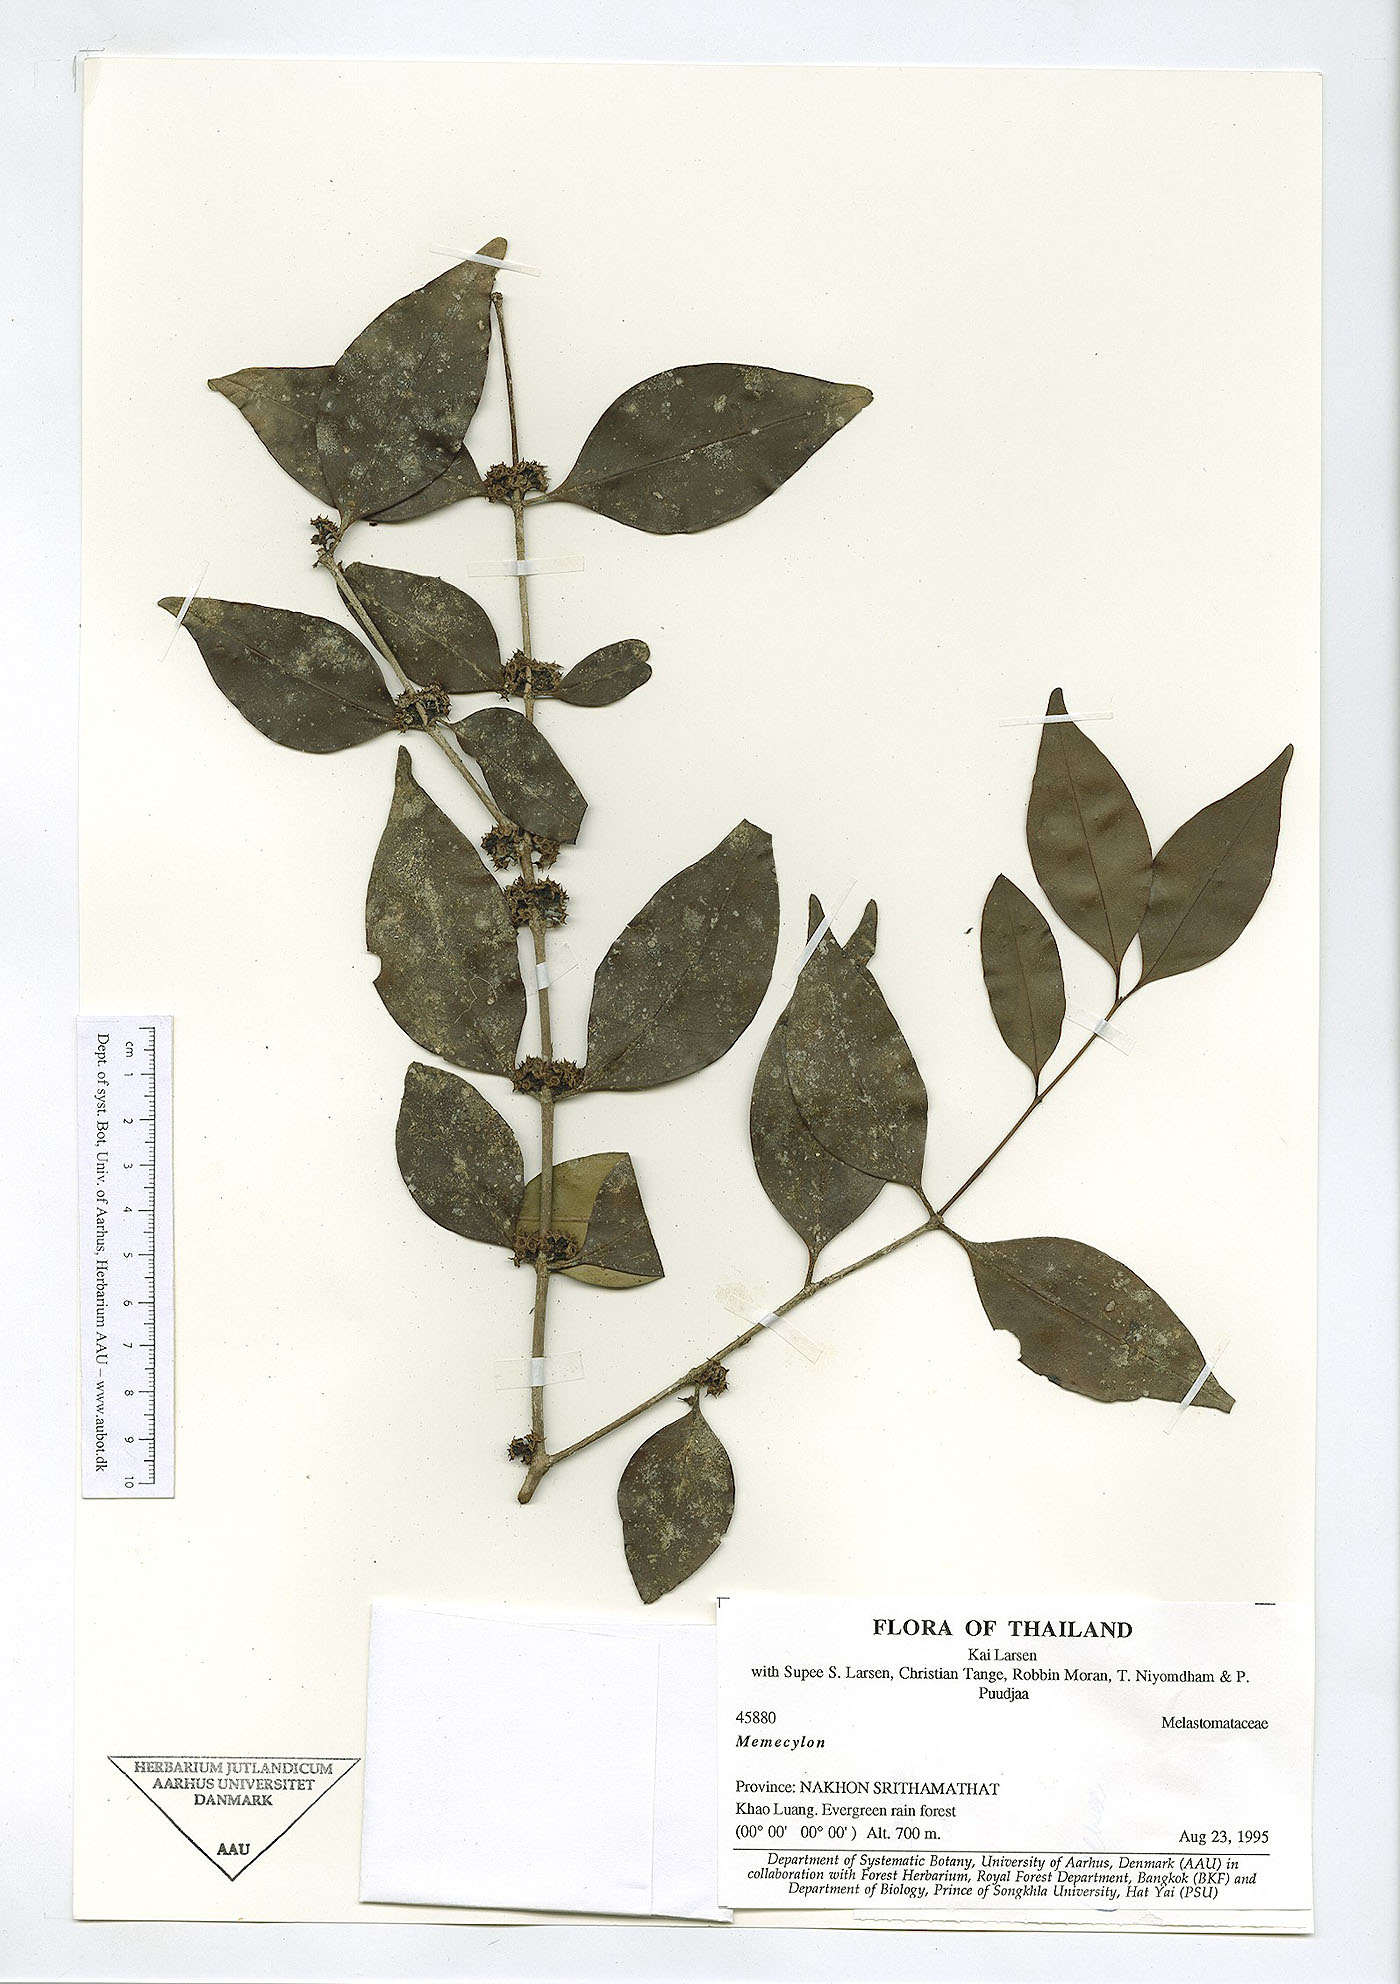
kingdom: Plantae
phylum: Tracheophyta
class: Magnoliopsida
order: Myrtales
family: Melastomataceae
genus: Memecylon
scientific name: Memecylon lilacinum
